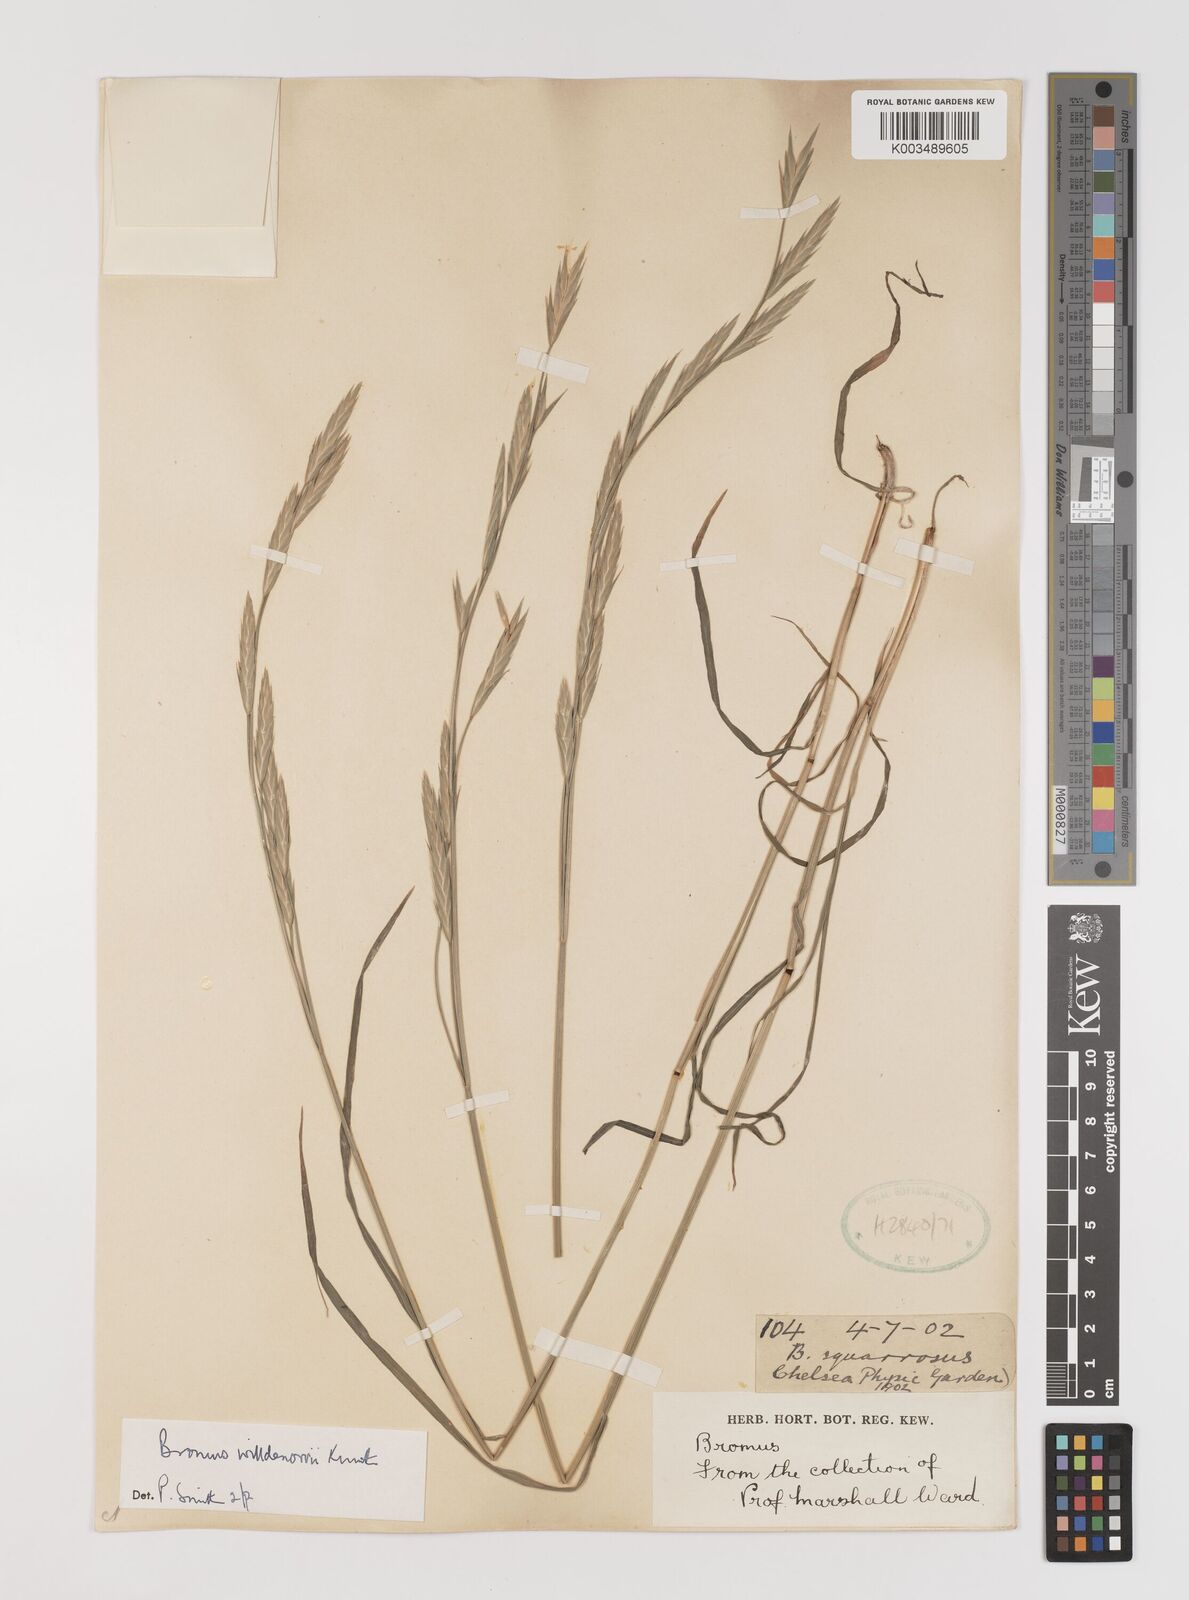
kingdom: Plantae
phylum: Tracheophyta
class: Liliopsida
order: Poales
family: Poaceae
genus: Bromus
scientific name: Bromus catharticus
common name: Rescuegrass
